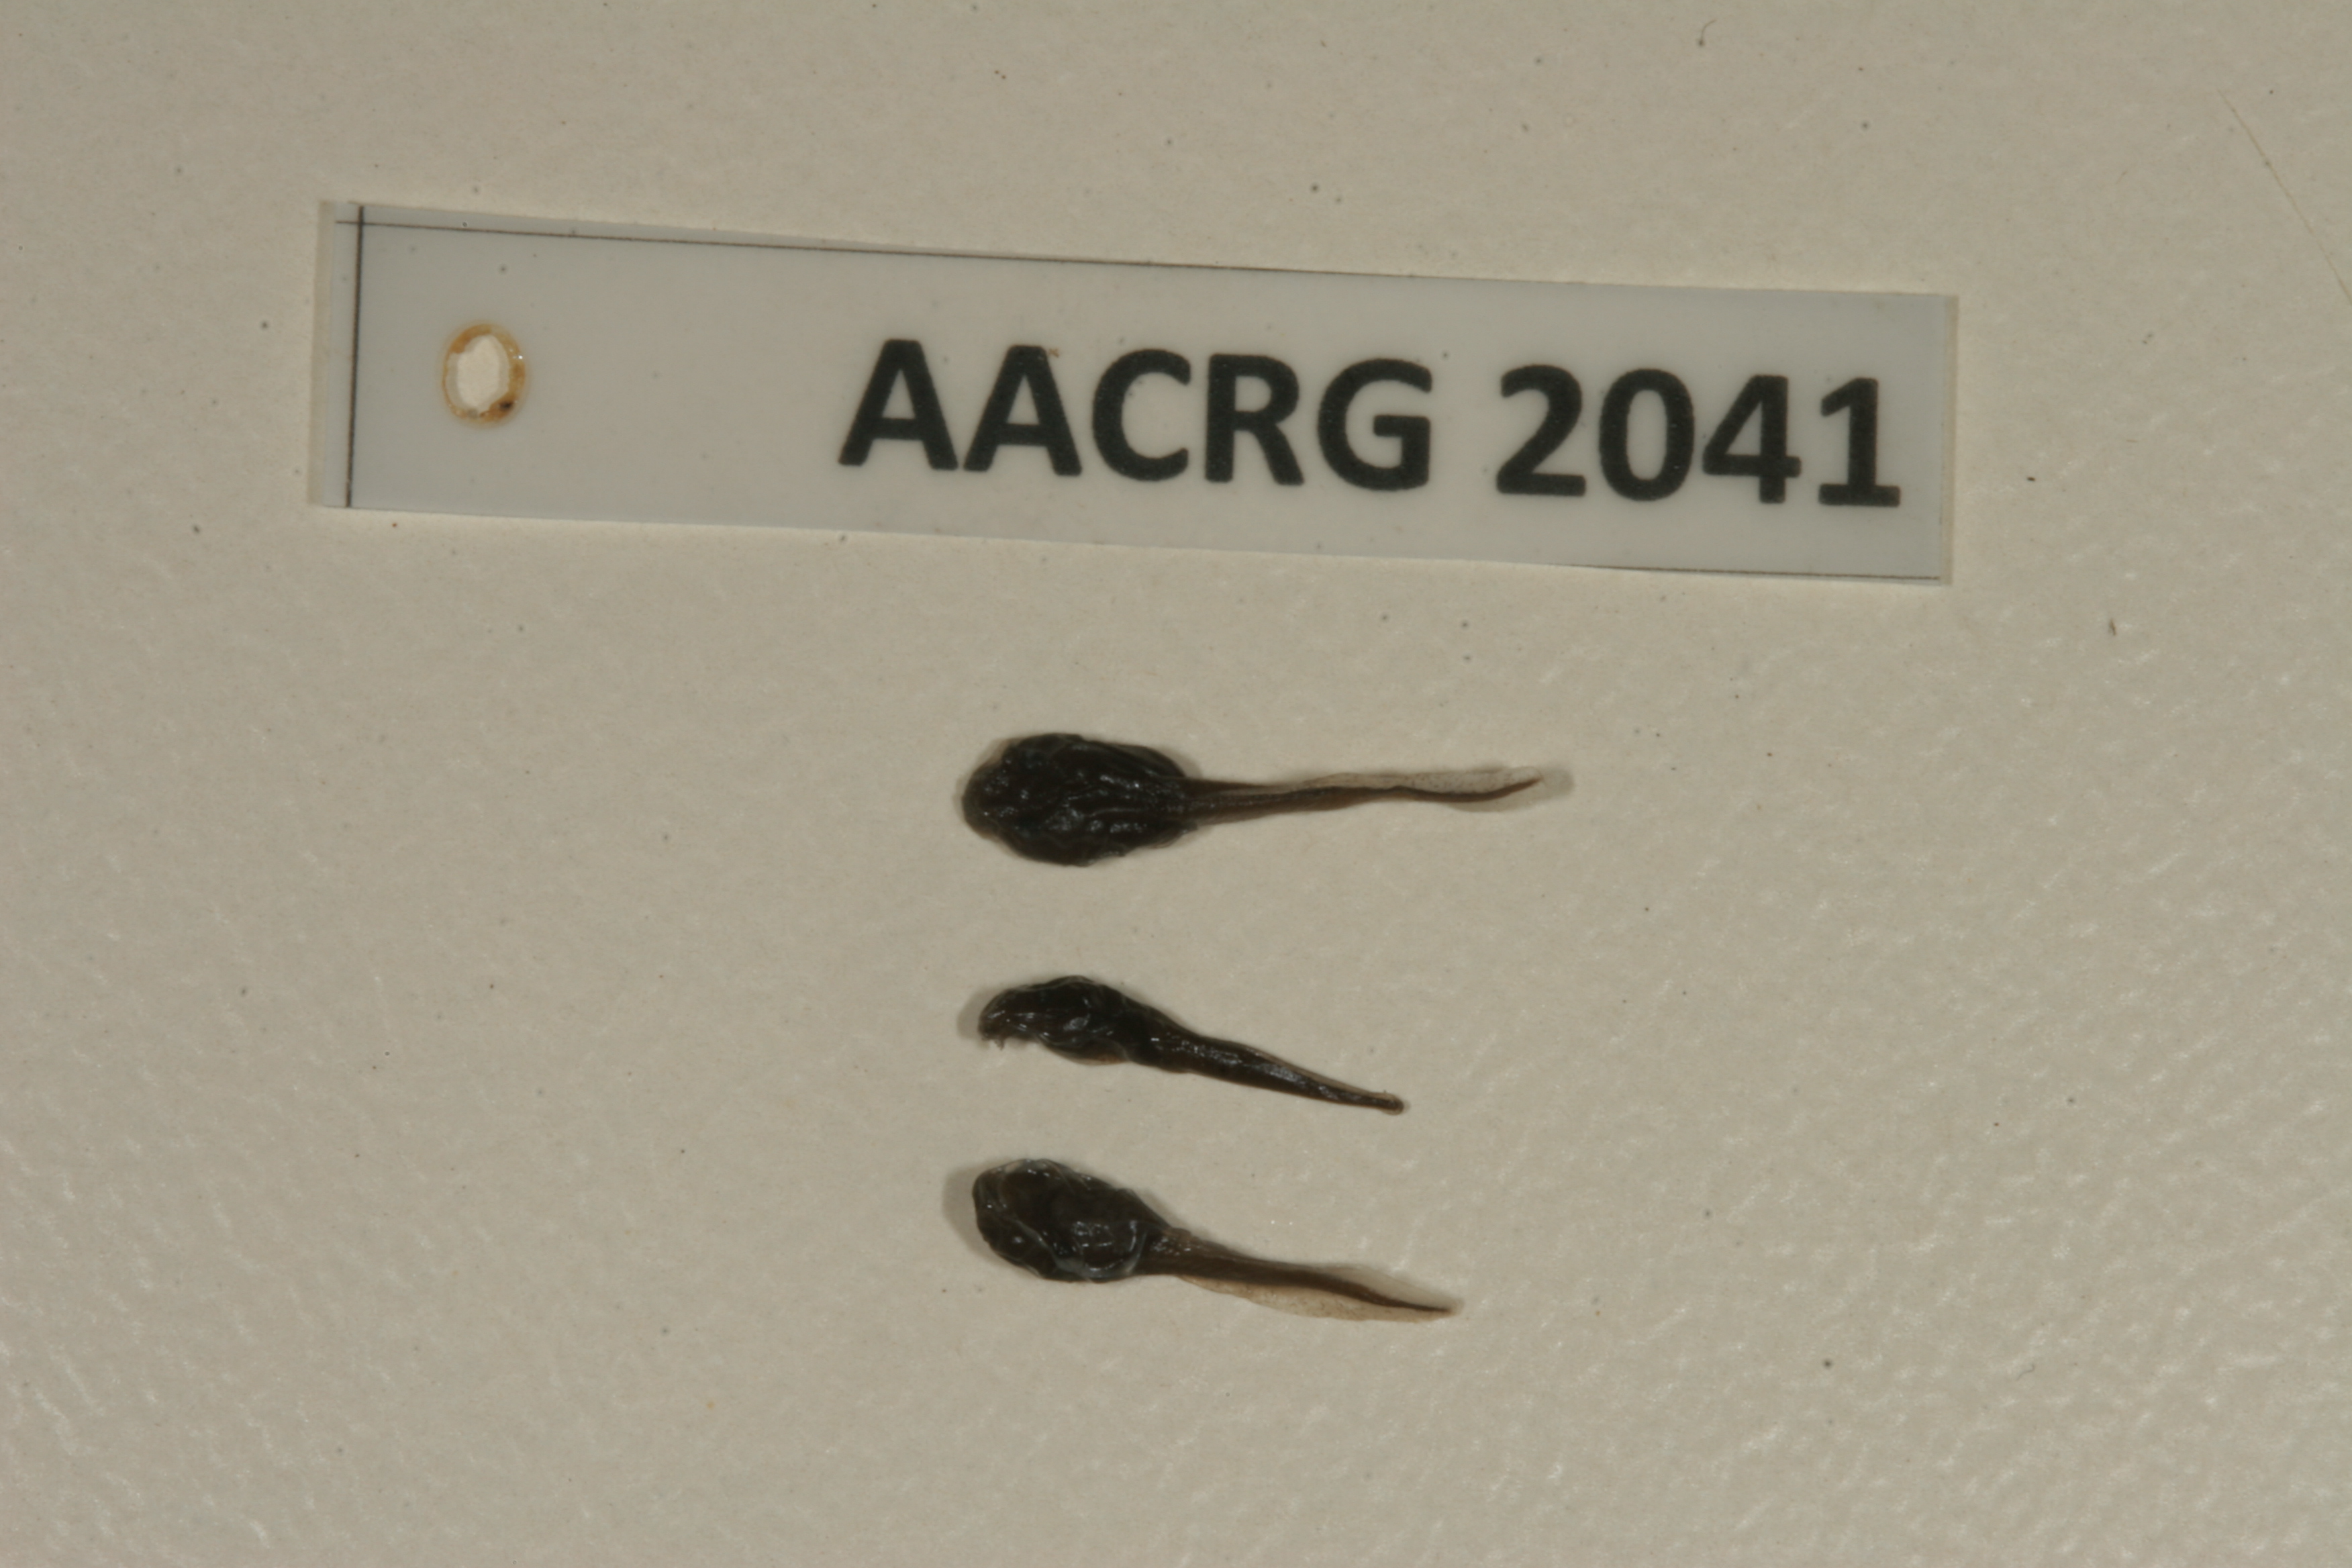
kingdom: Animalia
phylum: Chordata
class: Amphibia
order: Anura
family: Bufonidae
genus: Sclerophrys
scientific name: Sclerophrys garmani
